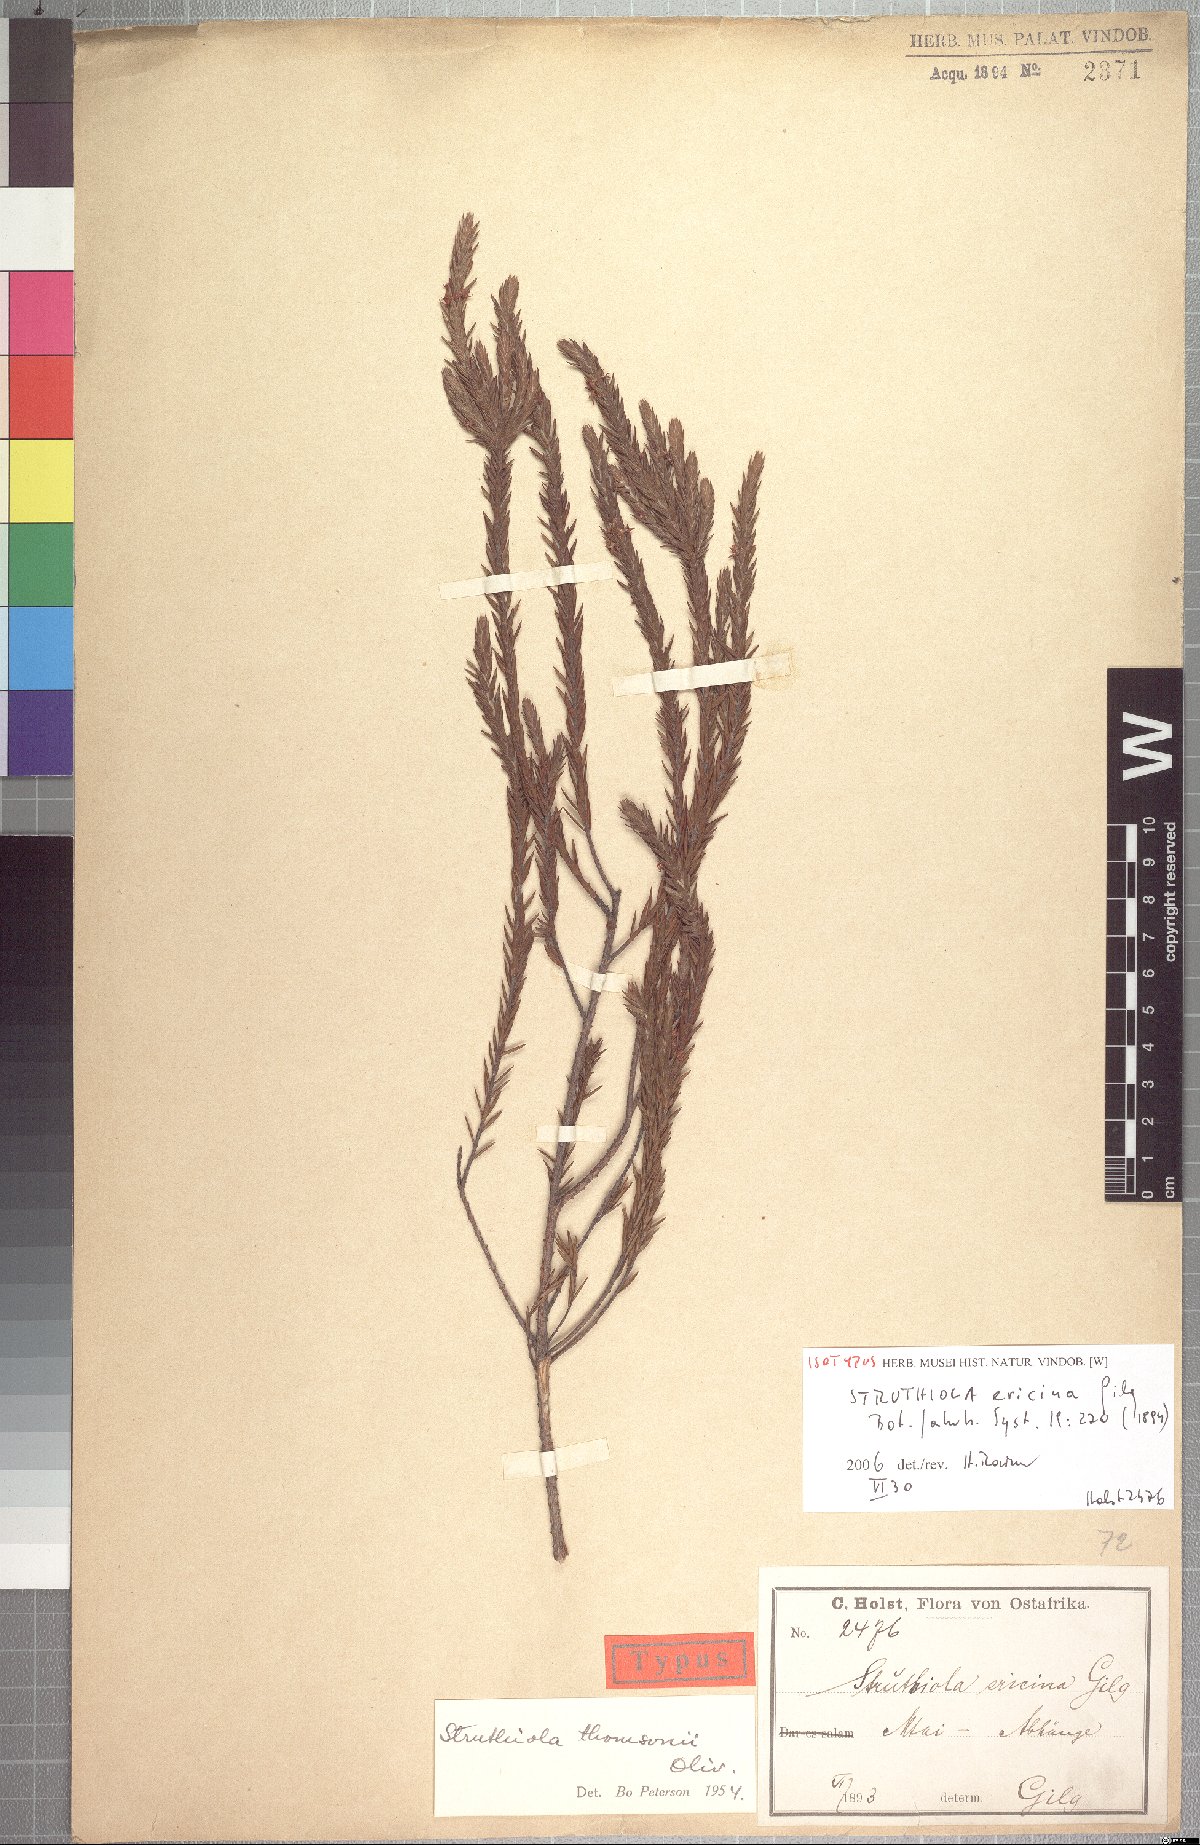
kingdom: Plantae
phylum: Tracheophyta
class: Magnoliopsida
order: Malvales
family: Thymelaeaceae
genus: Struthiola
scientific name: Struthiola thomsonii
